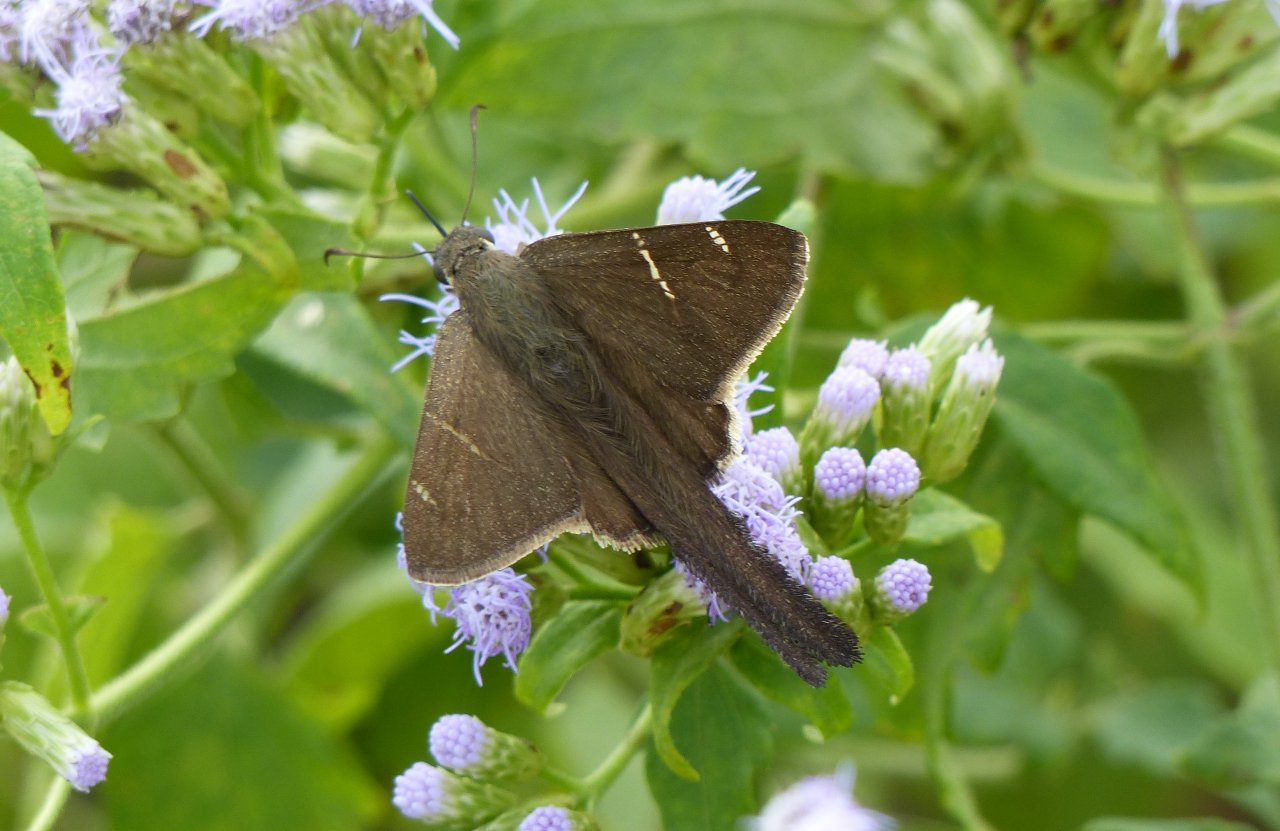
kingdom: Animalia
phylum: Arthropoda
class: Insecta
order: Lepidoptera
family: Hesperiidae
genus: Urbanus
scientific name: Urbanus procne
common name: Brown Longtail
